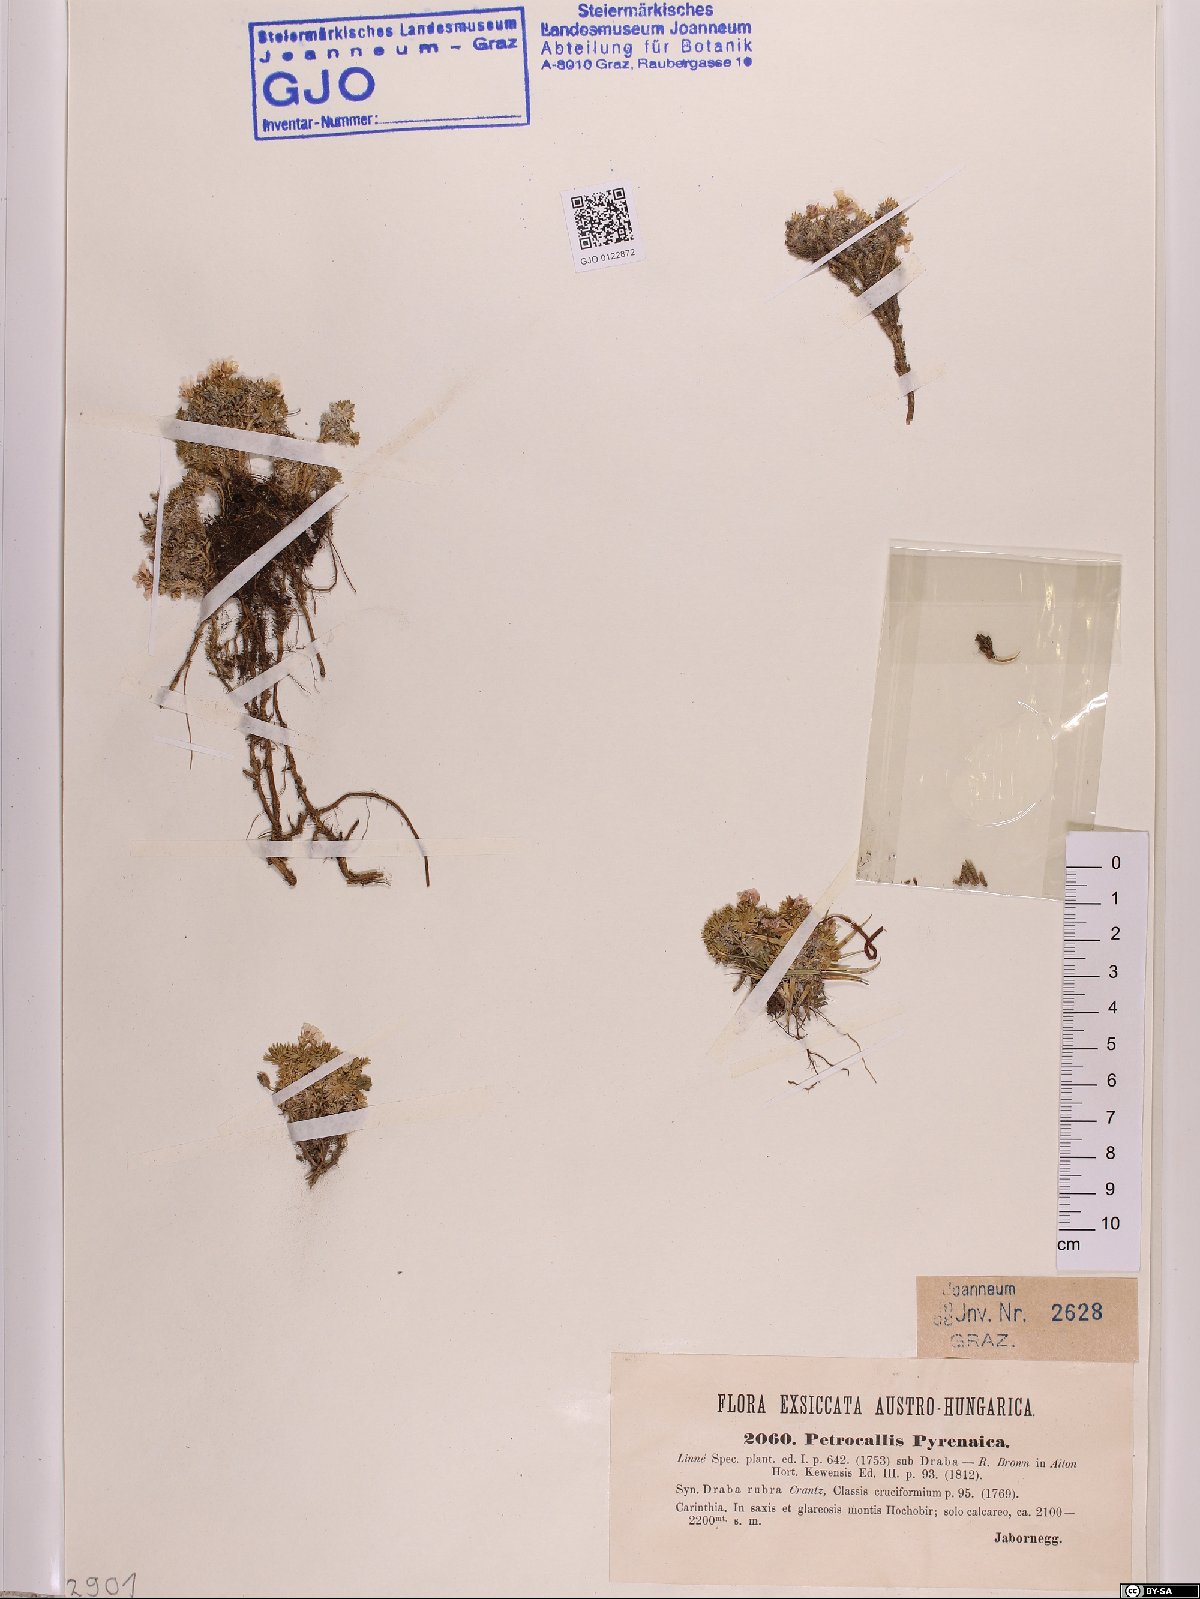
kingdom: Plantae
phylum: Tracheophyta
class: Magnoliopsida
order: Brassicales
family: Brassicaceae
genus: Petrocallis
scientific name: Petrocallis pyrenaica
